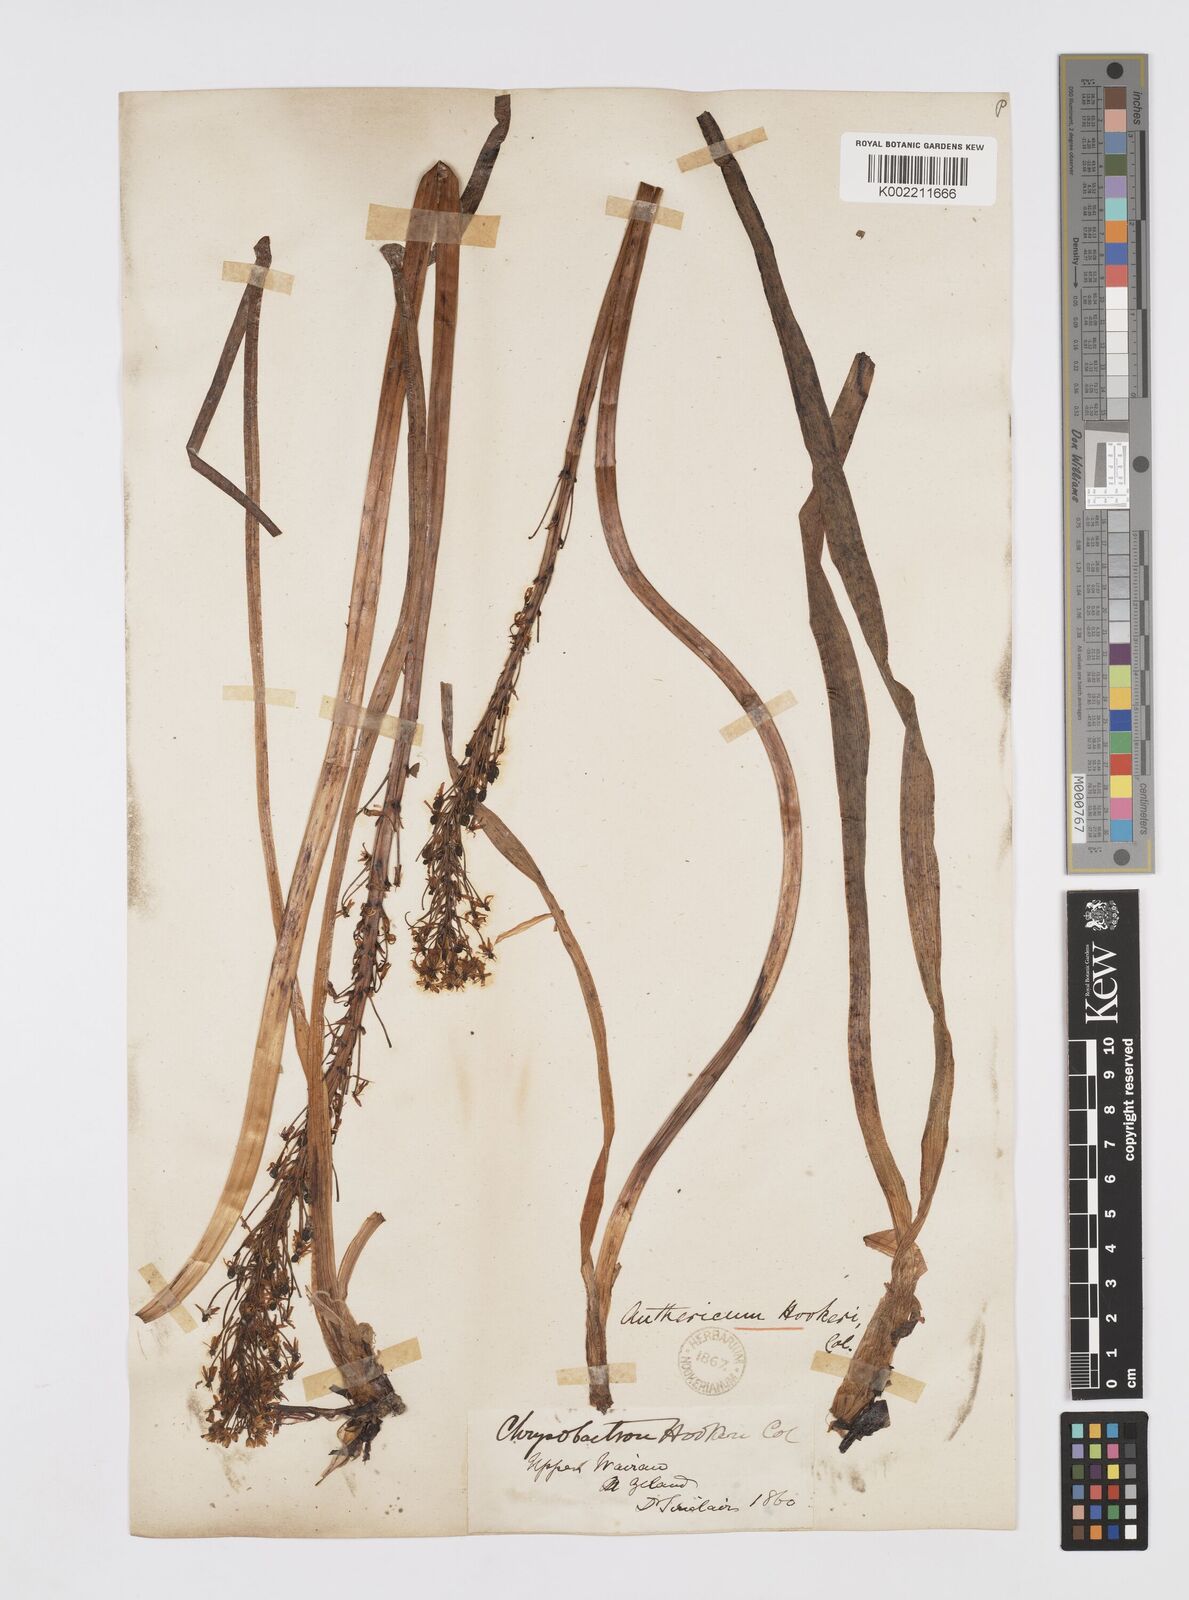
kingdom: Plantae
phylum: Tracheophyta
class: Liliopsida
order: Asparagales
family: Asphodelaceae
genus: Bulbinella
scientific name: Bulbinella hookeri
